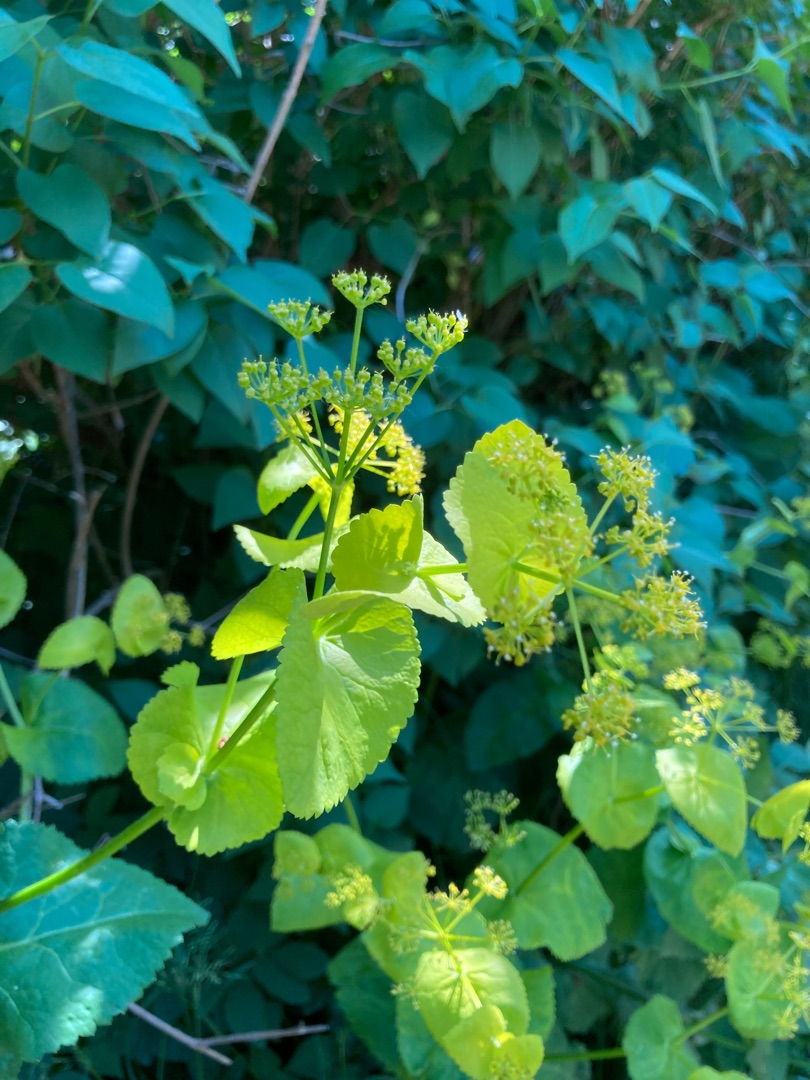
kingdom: Plantae
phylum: Tracheophyta
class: Magnoliopsida
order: Apiales
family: Apiaceae
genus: Smyrnium
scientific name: Smyrnium perfoliatum
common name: Lundgylden
